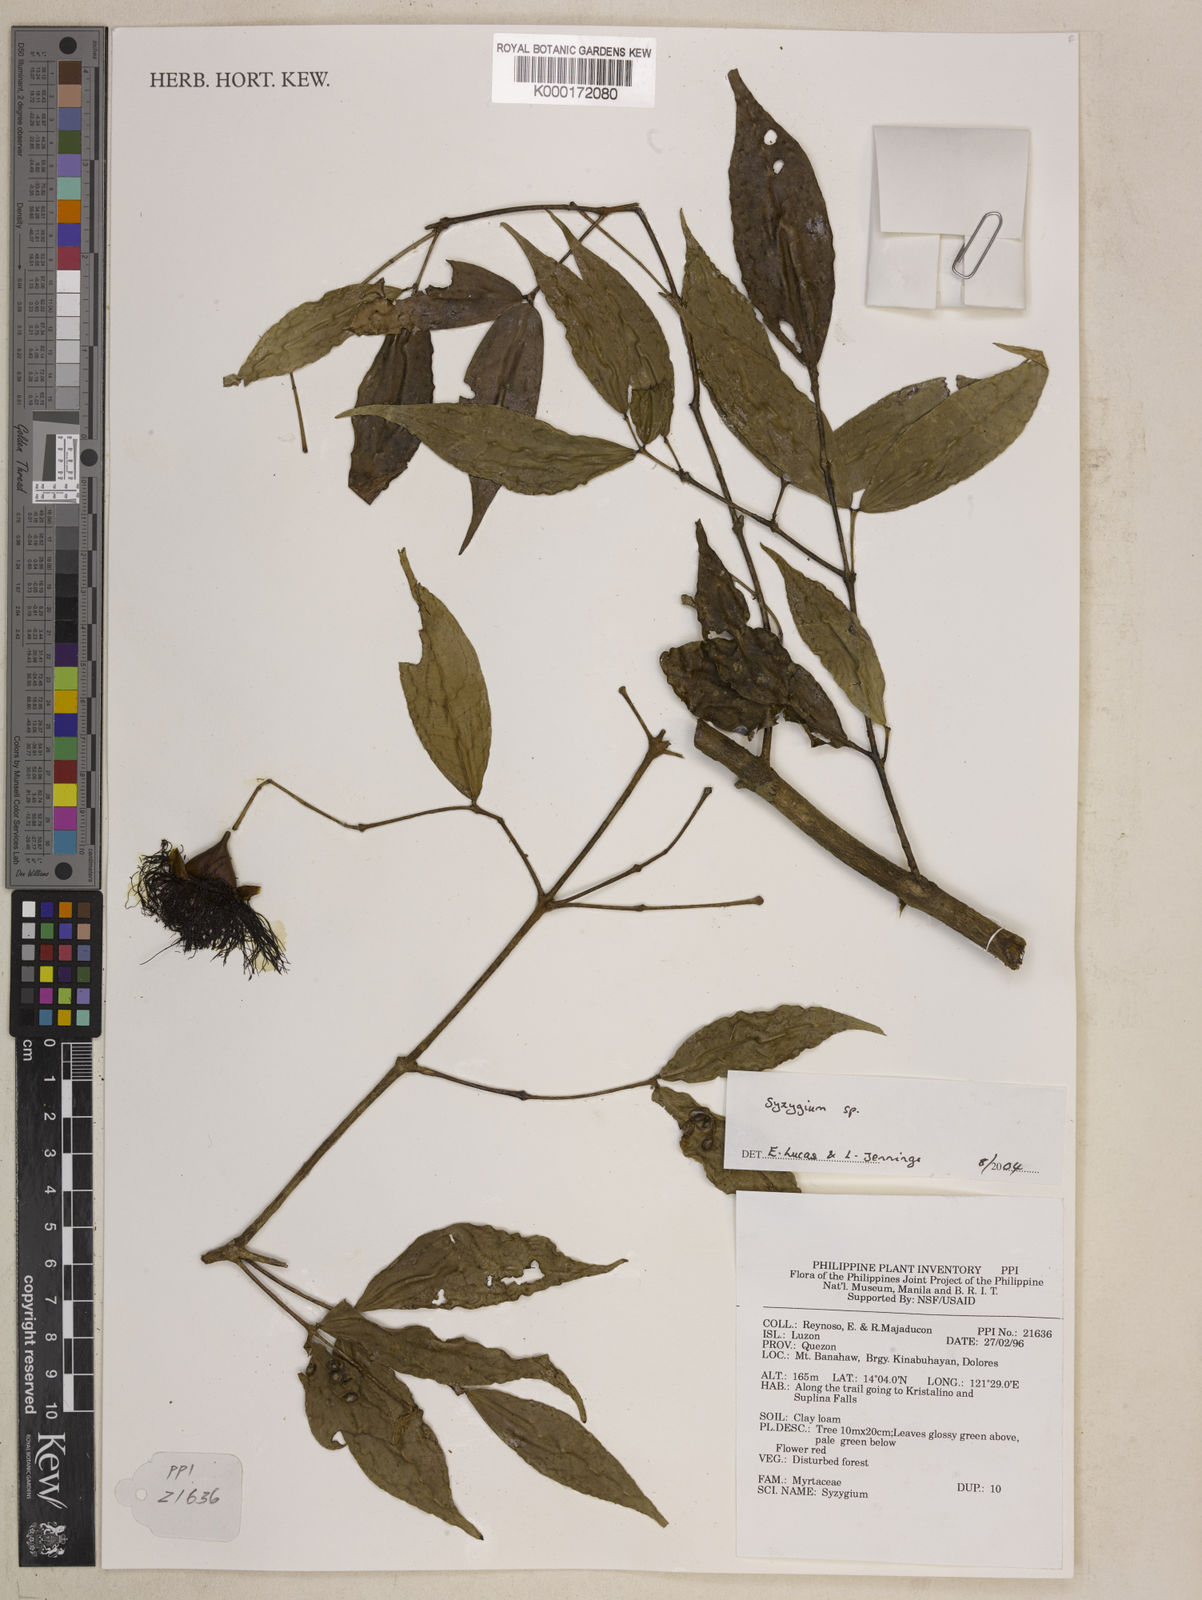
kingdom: Plantae
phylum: Tracheophyta
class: Magnoliopsida
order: Myrtales
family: Myrtaceae
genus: Syzygium
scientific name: Syzygium
